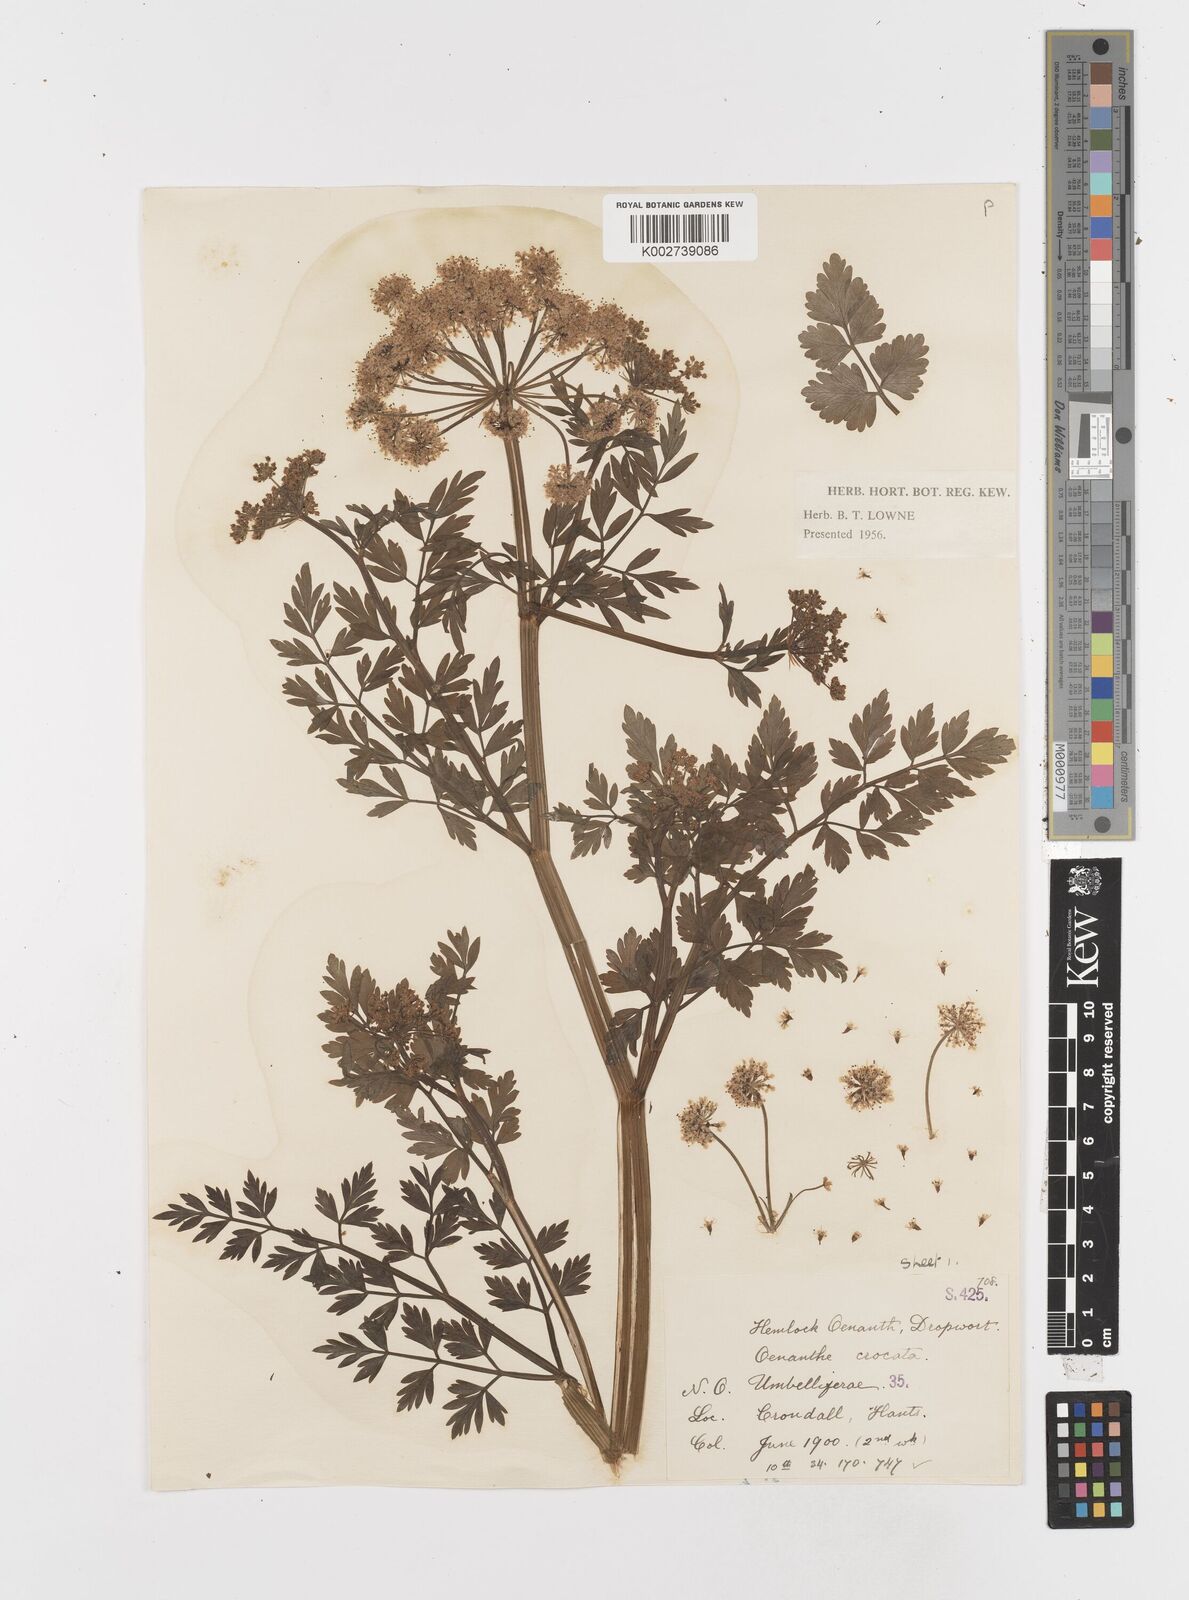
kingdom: Plantae
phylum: Tracheophyta
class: Magnoliopsida
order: Apiales
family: Apiaceae
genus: Oenanthe
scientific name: Oenanthe crocata
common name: Hemlock water-dropwort
